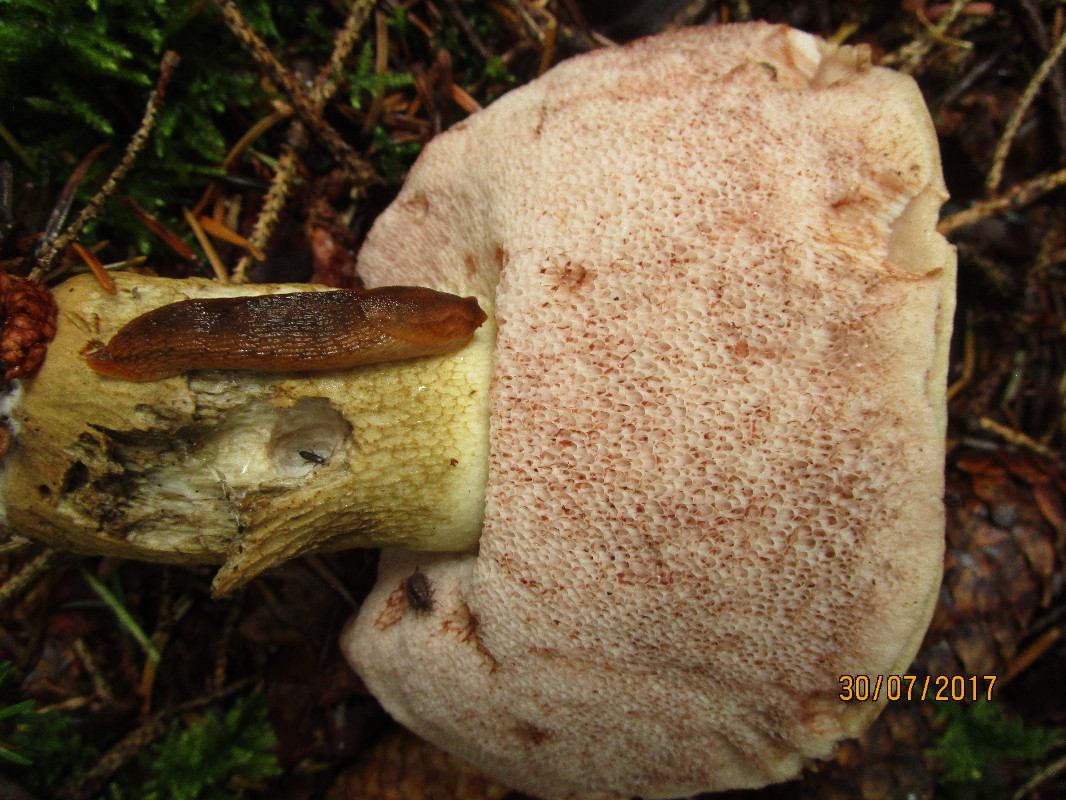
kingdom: Fungi
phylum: Basidiomycota
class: Agaricomycetes
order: Boletales
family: Boletaceae
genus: Tylopilus
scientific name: Tylopilus felleus
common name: galderørhat
